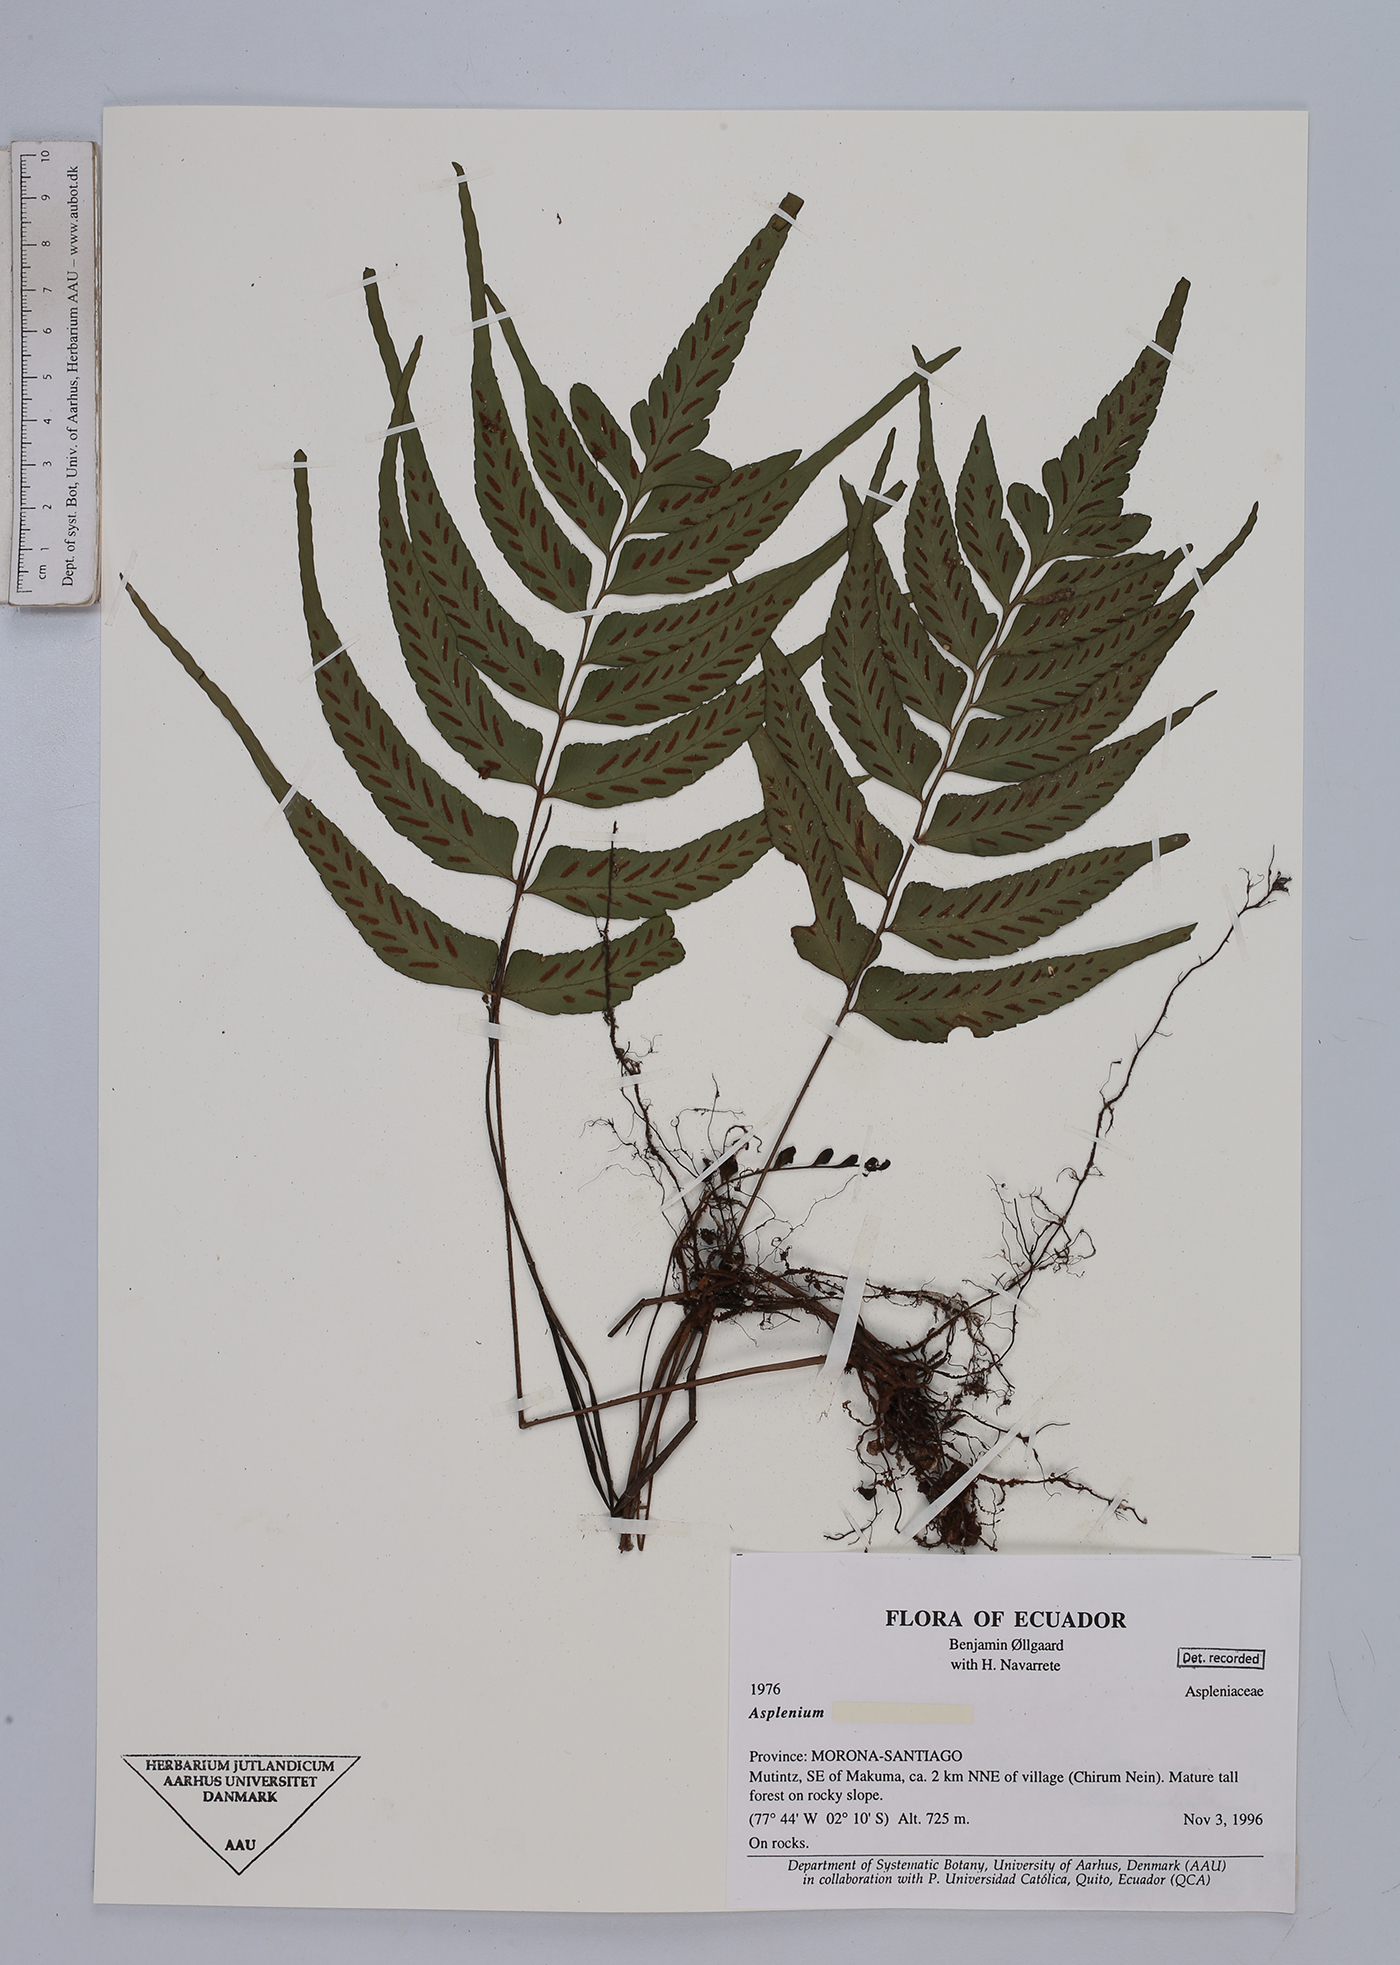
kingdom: Plantae
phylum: Tracheophyta
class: Polypodiopsida
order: Polypodiales
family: Aspleniaceae
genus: Asplenium
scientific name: Asplenium
